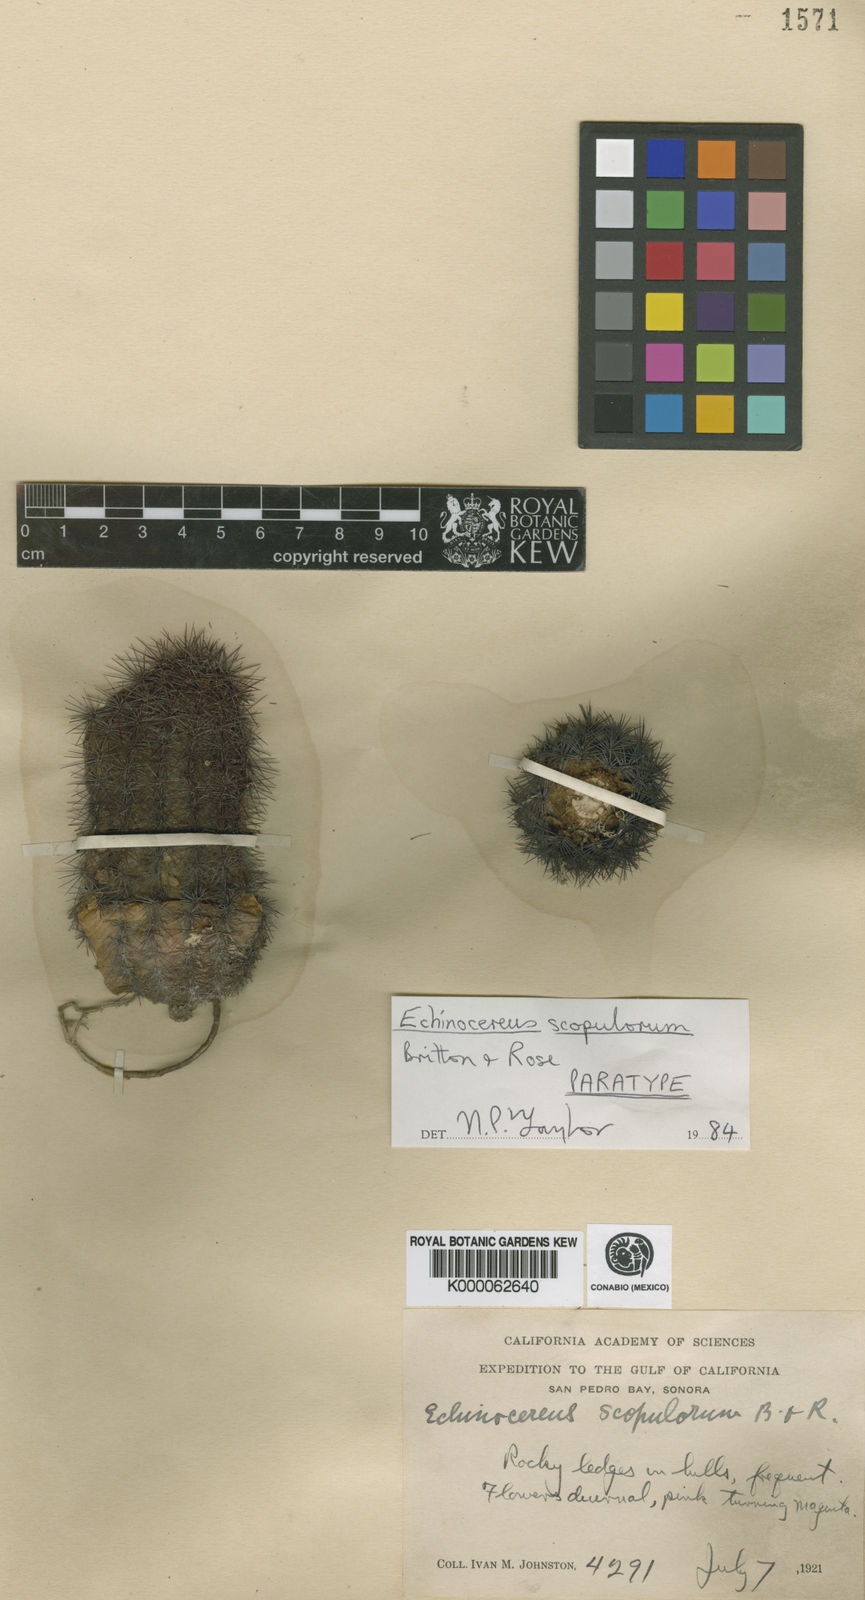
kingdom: Plantae
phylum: Tracheophyta
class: Magnoliopsida
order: Caryophyllales
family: Cactaceae
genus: Echinocereus
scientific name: Echinocereus scopulorum
